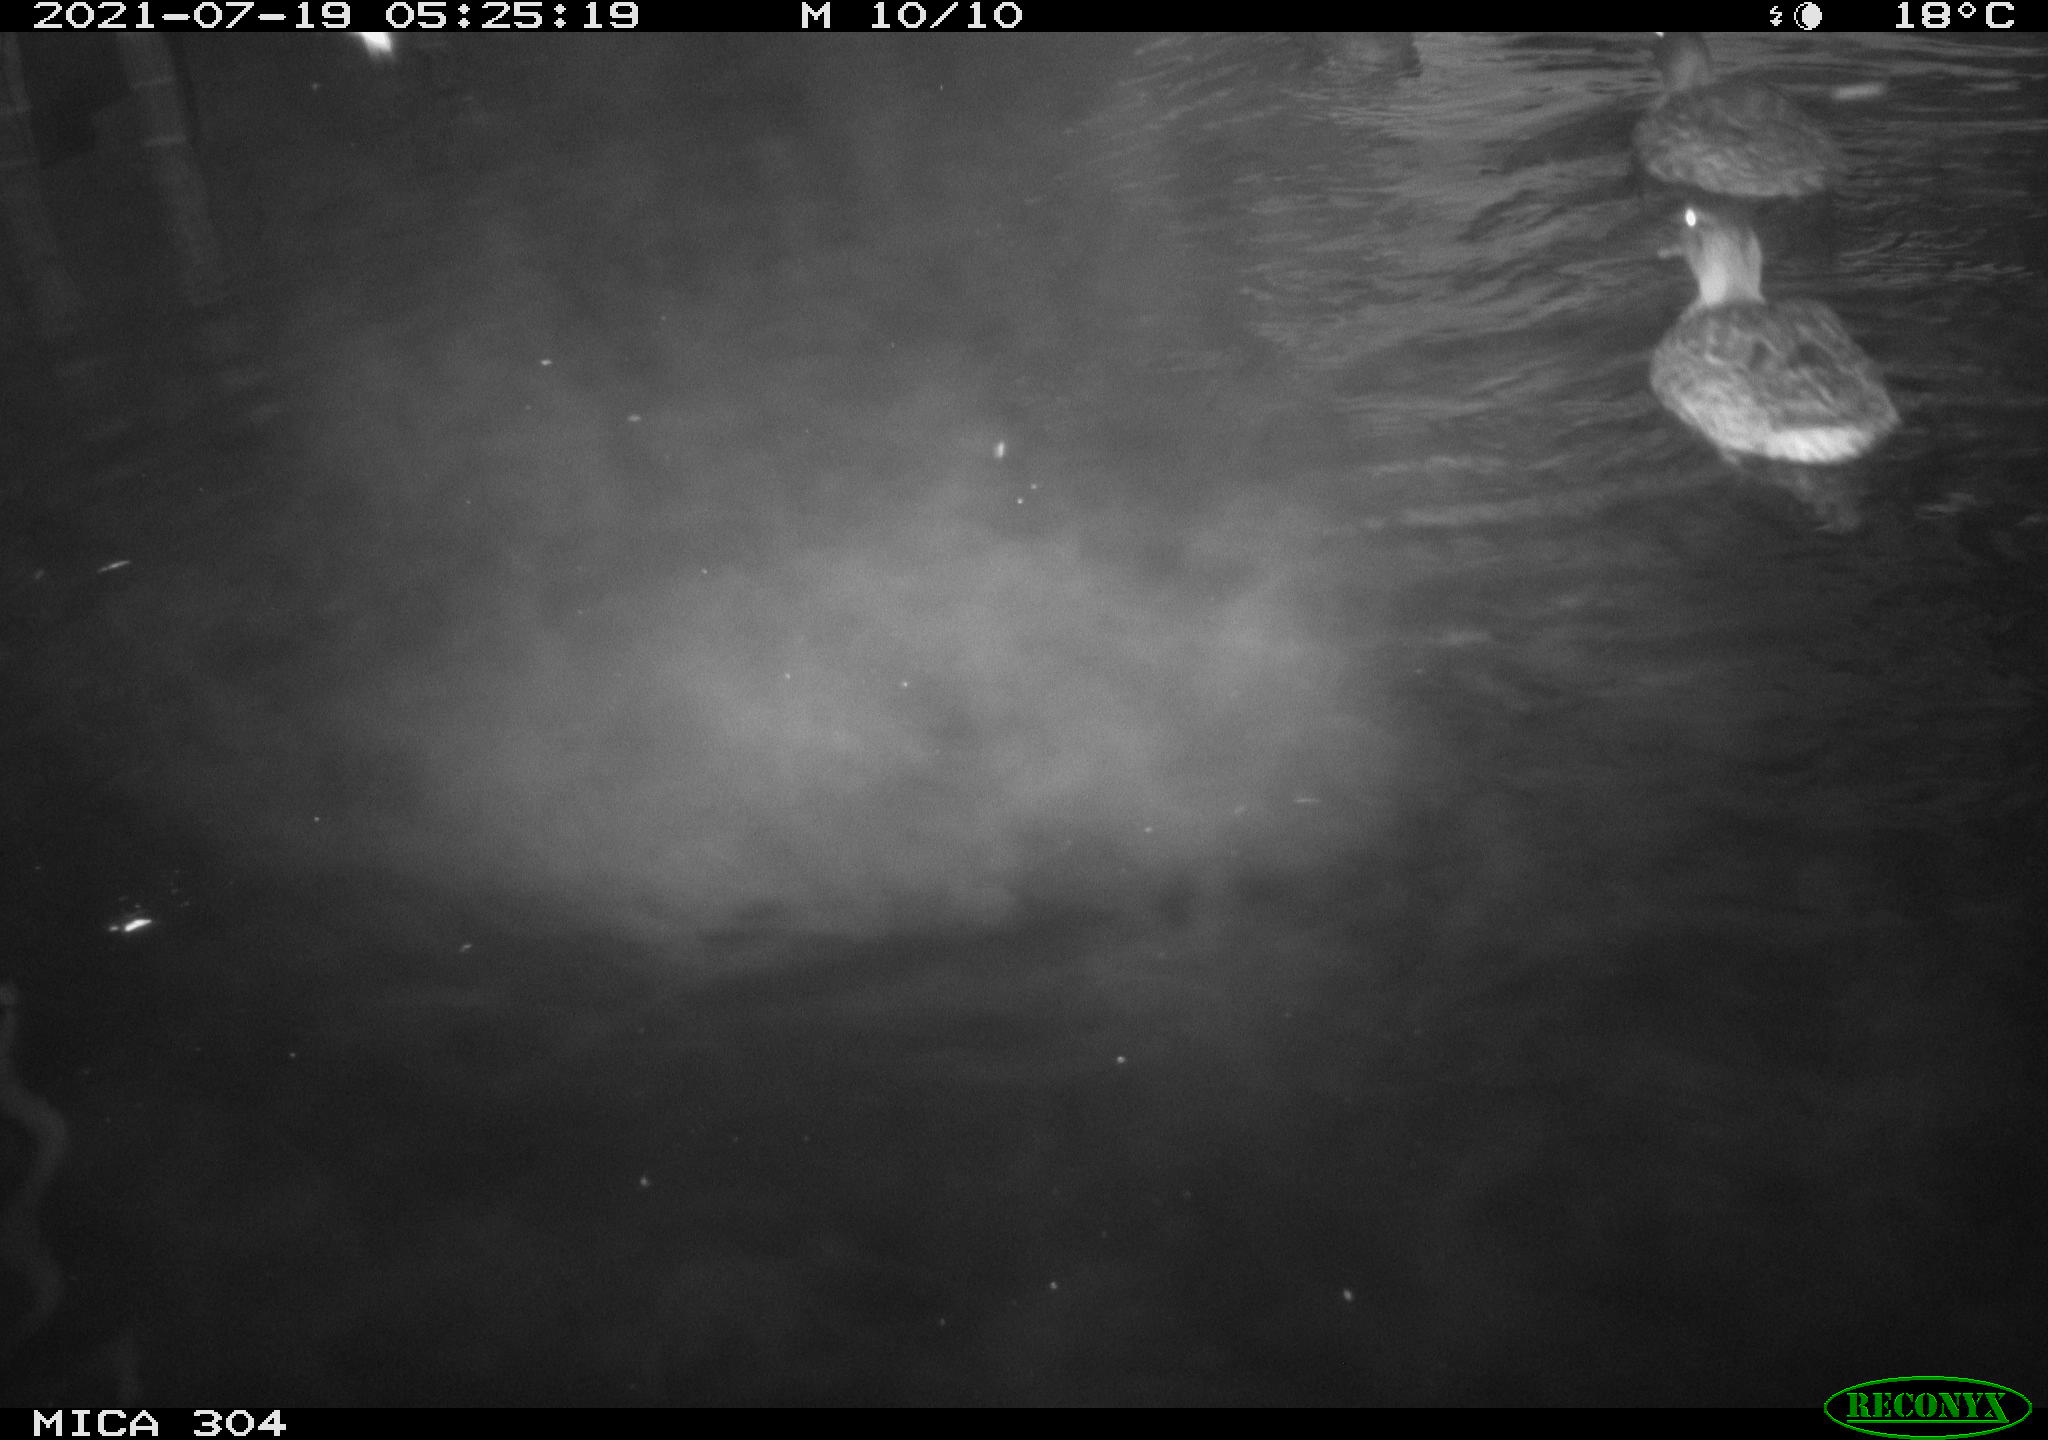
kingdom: Animalia
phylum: Chordata
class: Aves
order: Anseriformes
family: Anatidae
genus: Mareca
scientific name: Mareca strepera
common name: Gadwall
